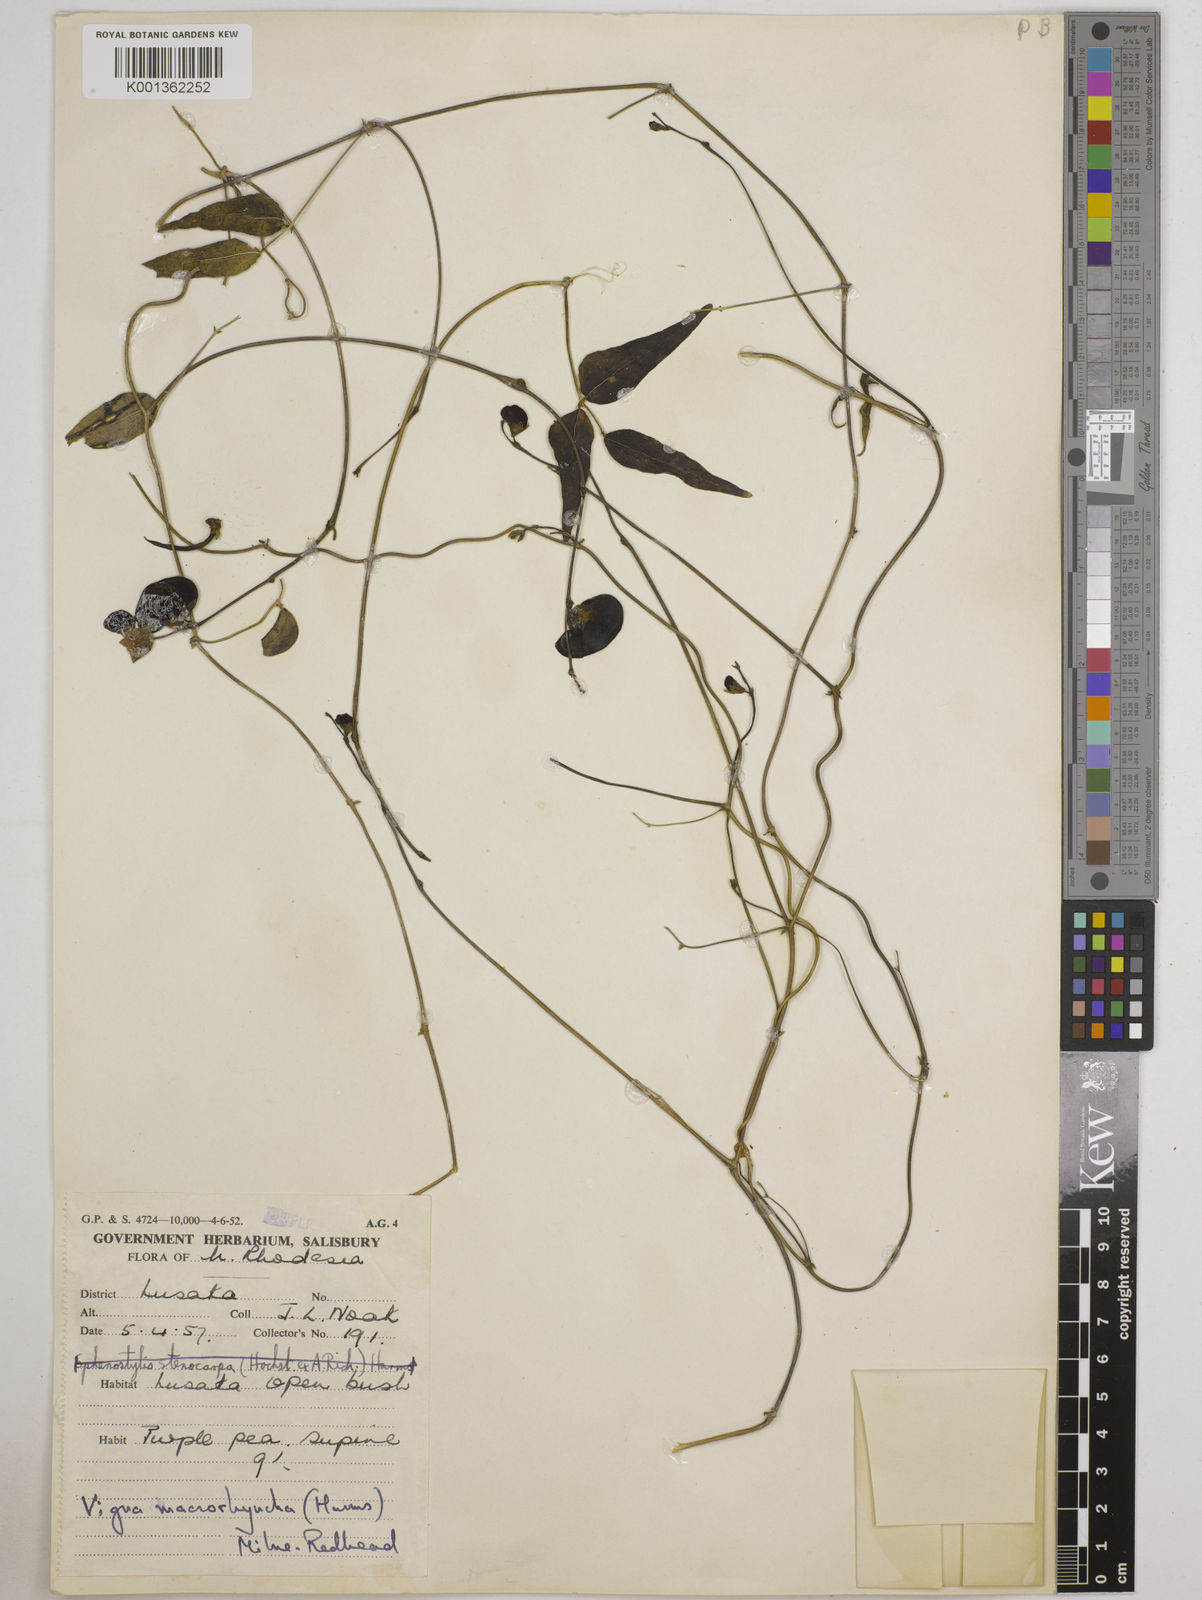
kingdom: Plantae
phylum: Tracheophyta
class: Magnoliopsida
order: Fabales
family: Fabaceae
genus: Wajira
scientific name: Wajira grahamiana
